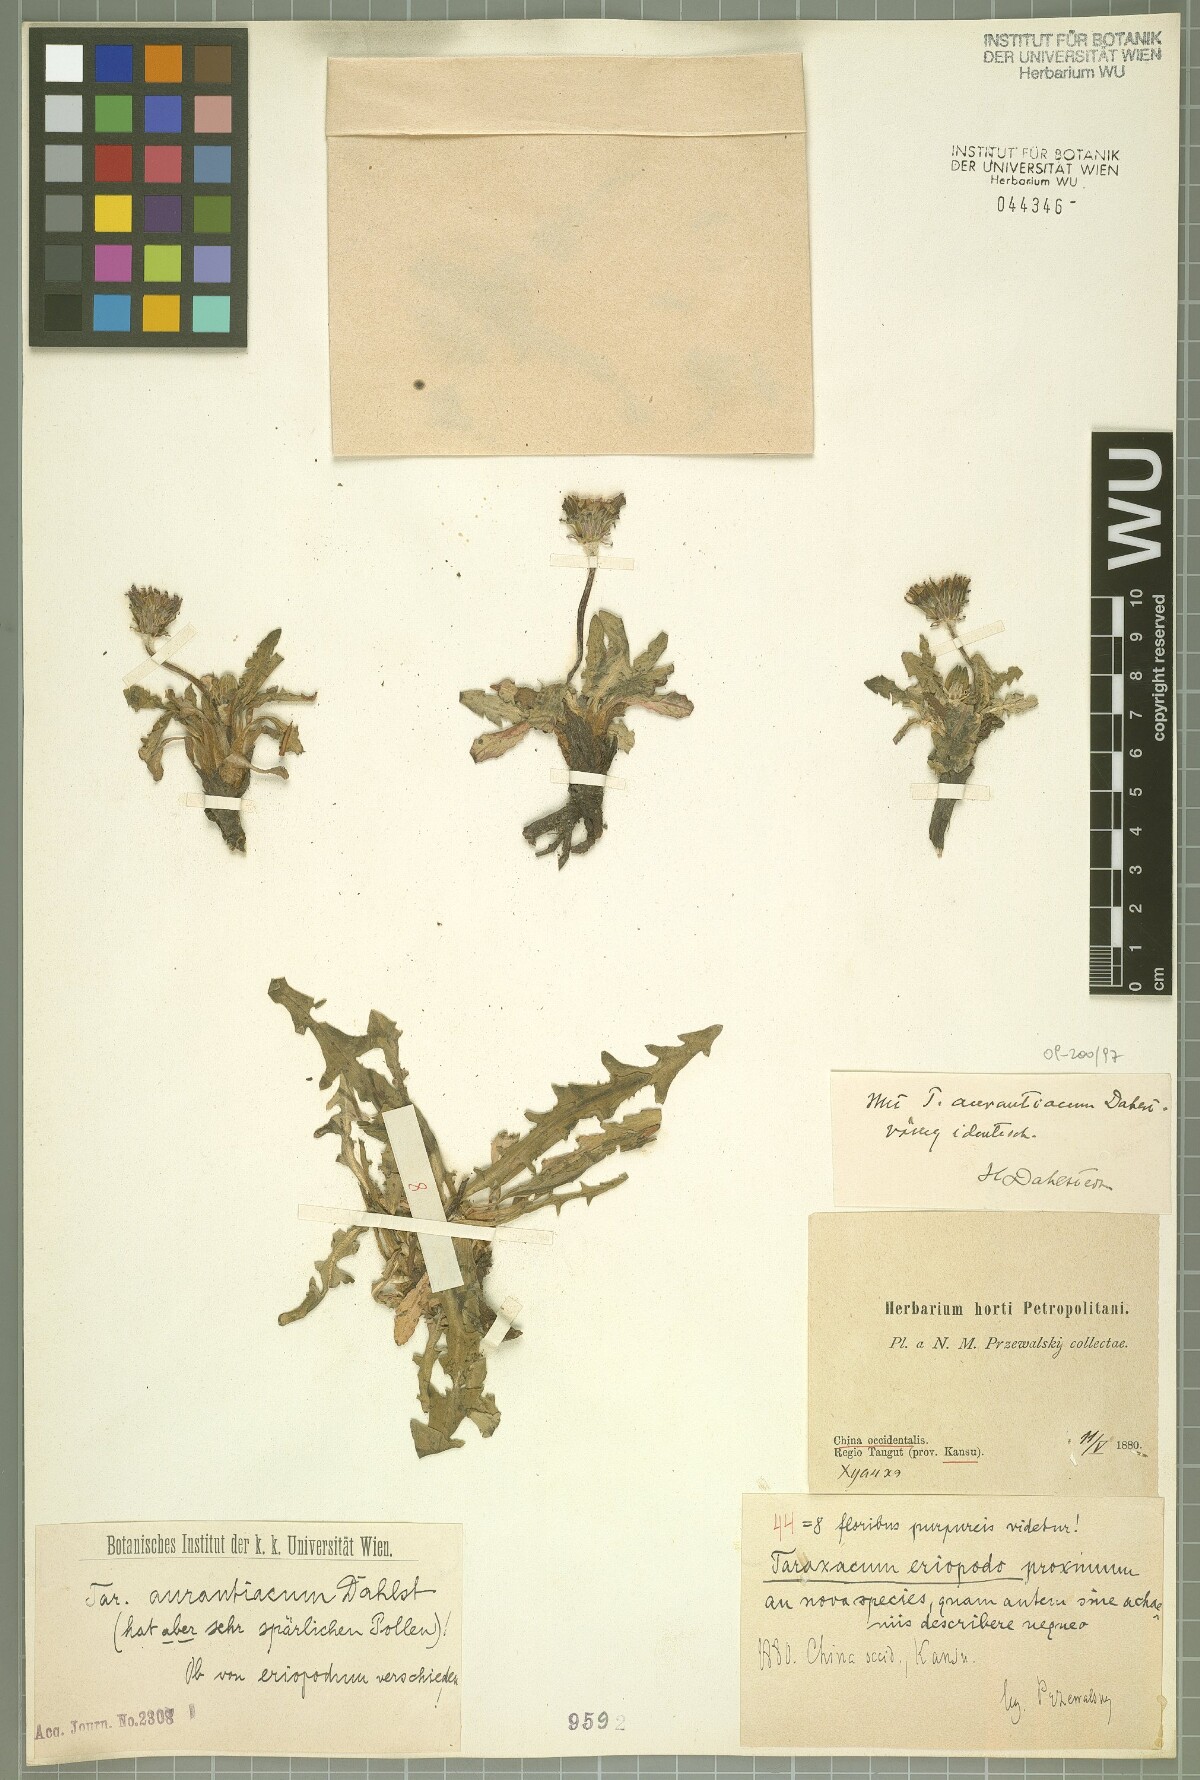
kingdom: Plantae
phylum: Tracheophyta
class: Magnoliopsida
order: Asterales
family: Asteraceae
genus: Taraxacum
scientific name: Taraxacum aurantiacum
